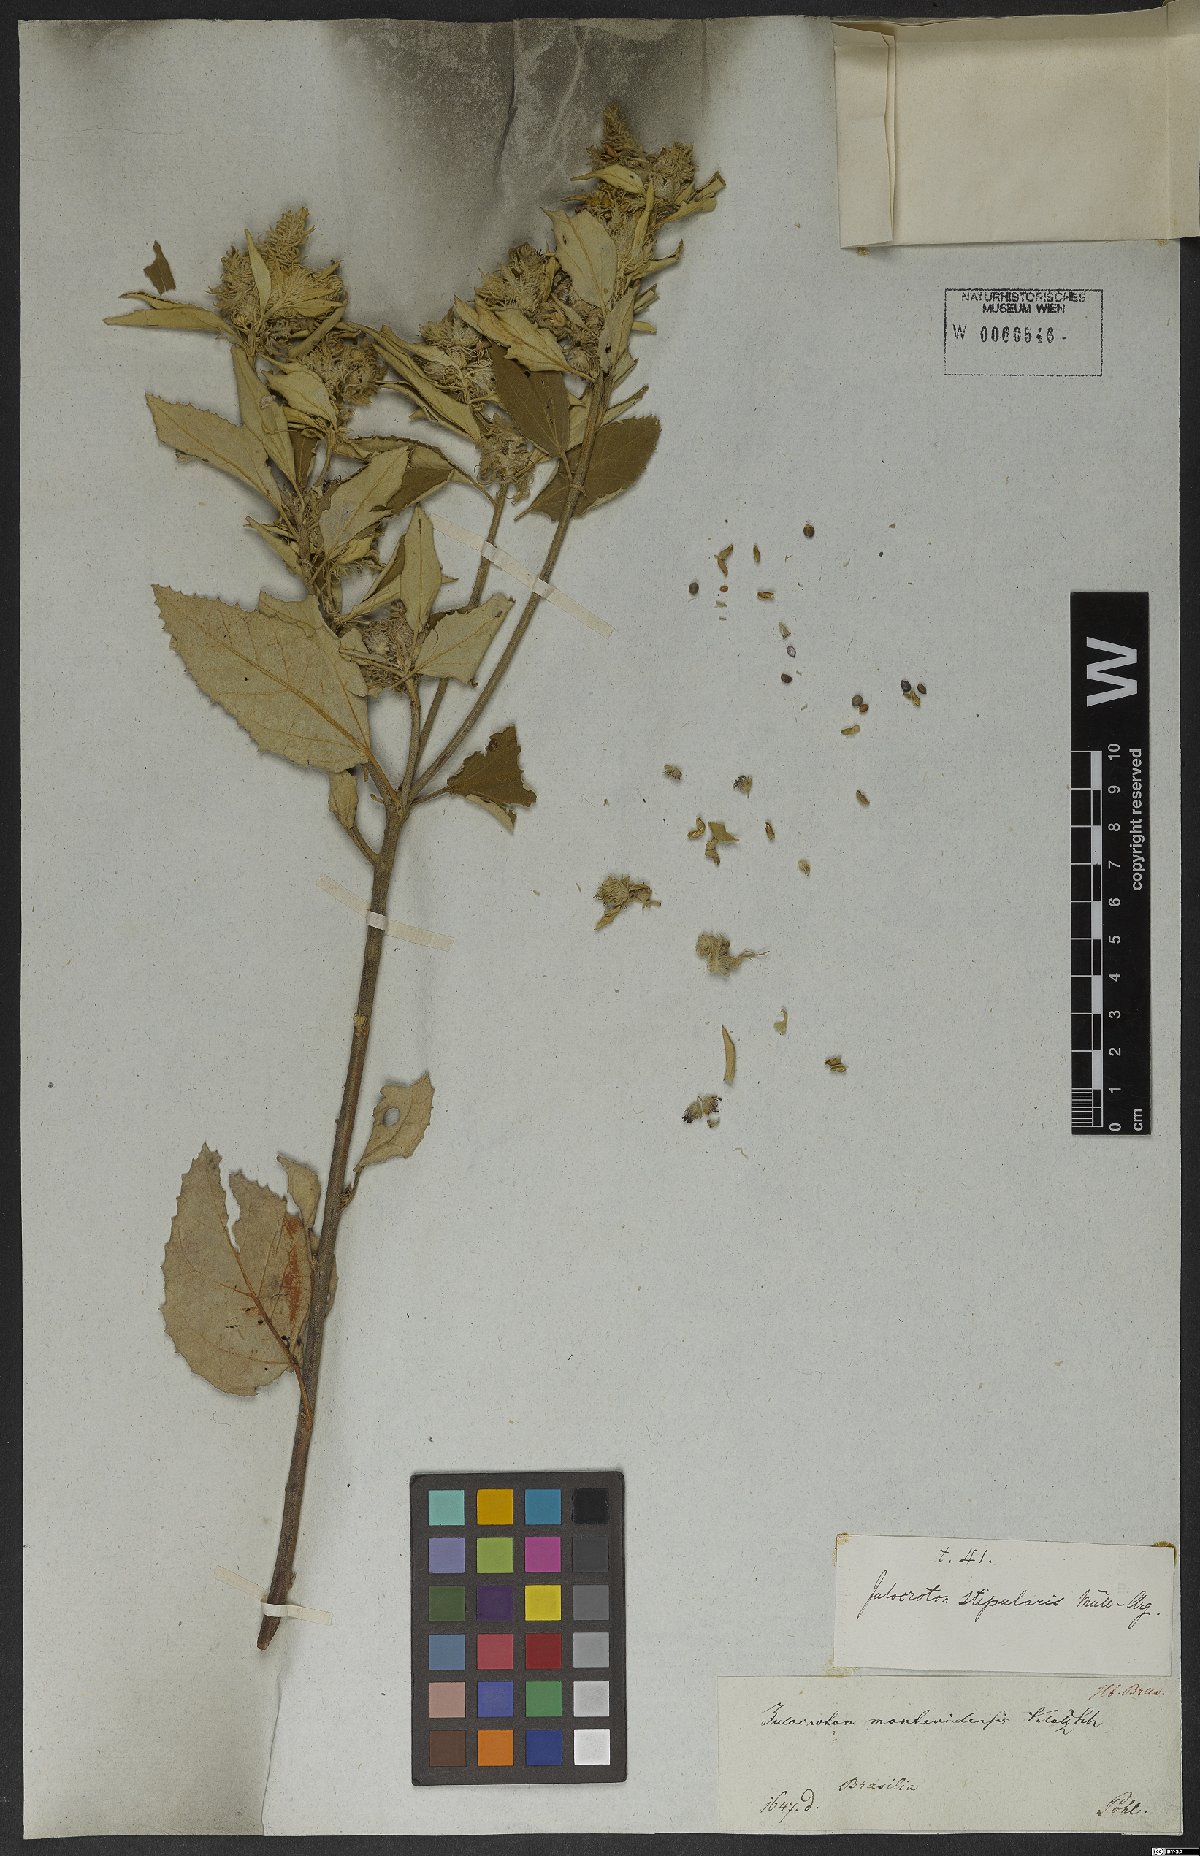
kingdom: Plantae
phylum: Tracheophyta
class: Magnoliopsida
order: Malpighiales
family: Euphorbiaceae
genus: Croton
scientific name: Croton stipularis
